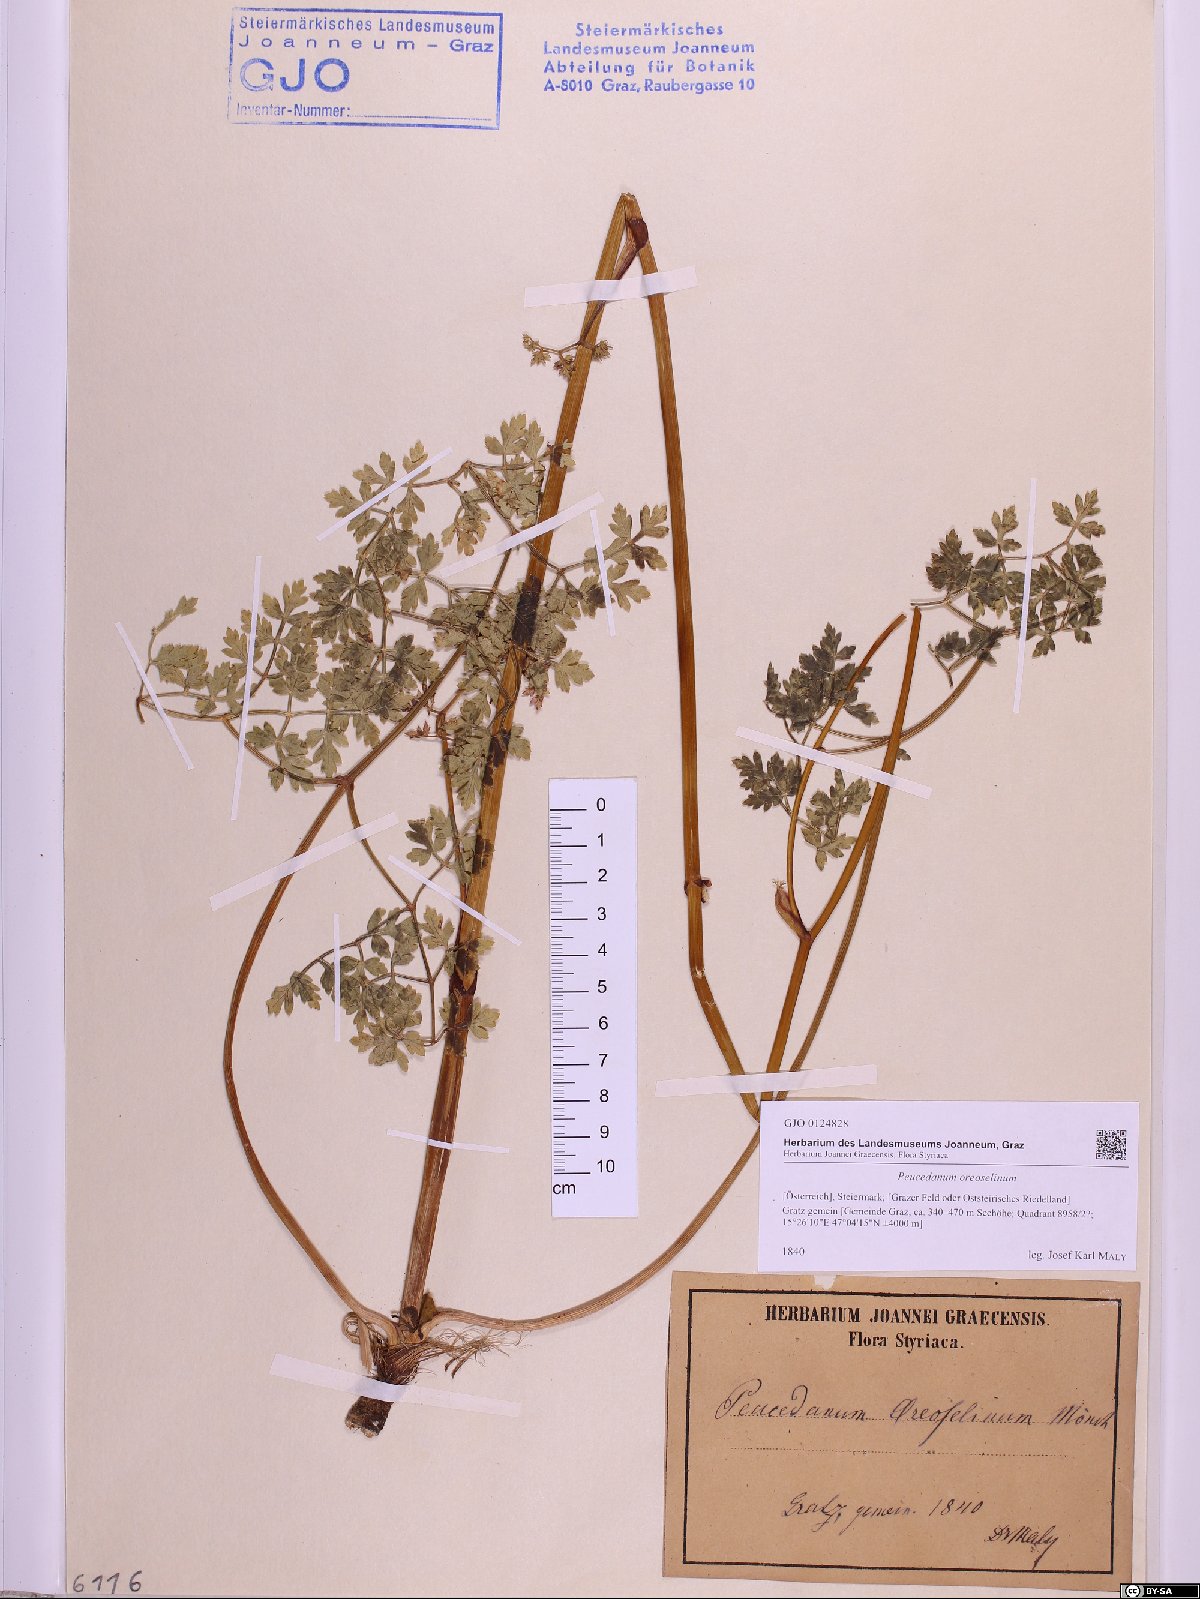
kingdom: Plantae
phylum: Tracheophyta
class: Magnoliopsida
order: Apiales
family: Apiaceae
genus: Oreoselinum
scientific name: Oreoselinum nigrum
